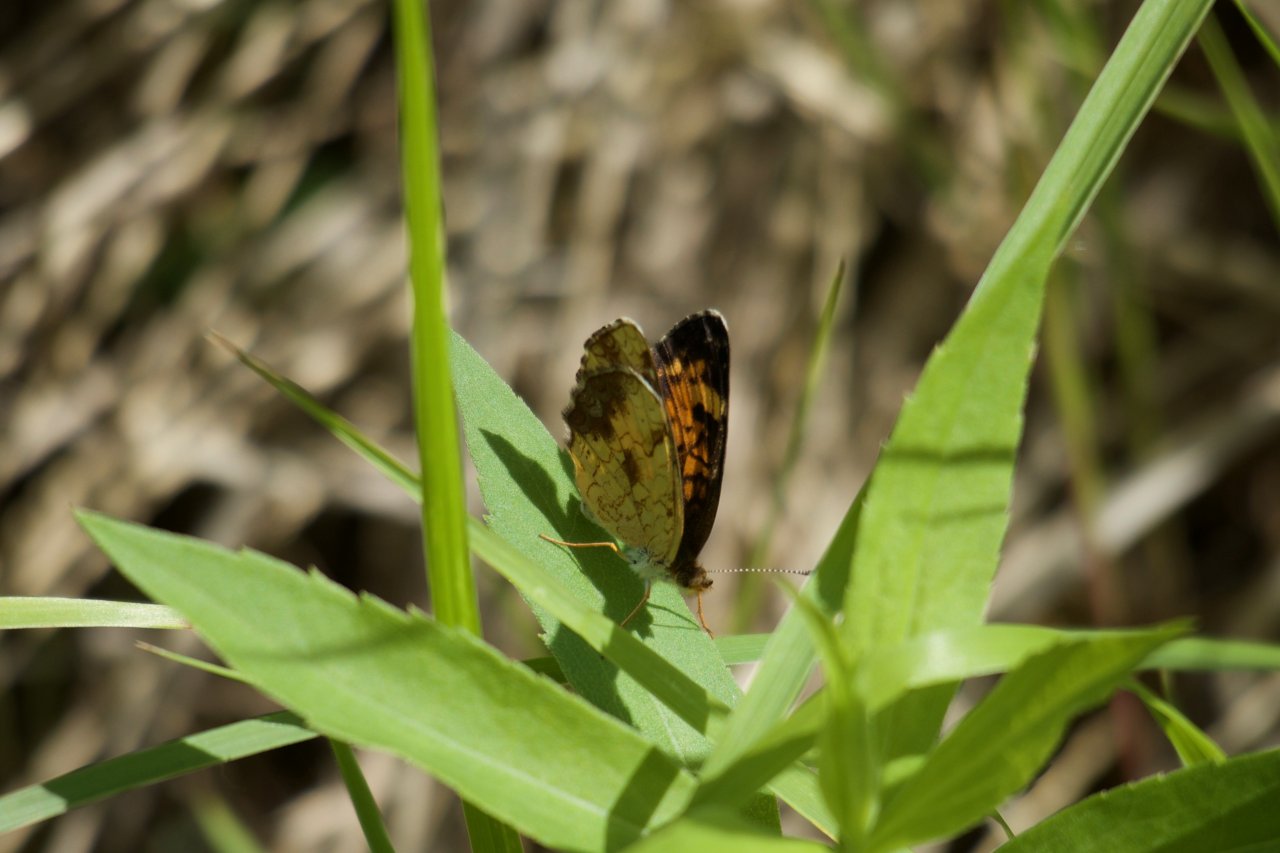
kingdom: Animalia
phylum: Arthropoda
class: Insecta
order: Lepidoptera
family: Nymphalidae
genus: Phyciodes
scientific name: Phyciodes tharos
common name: Northern Crescent
